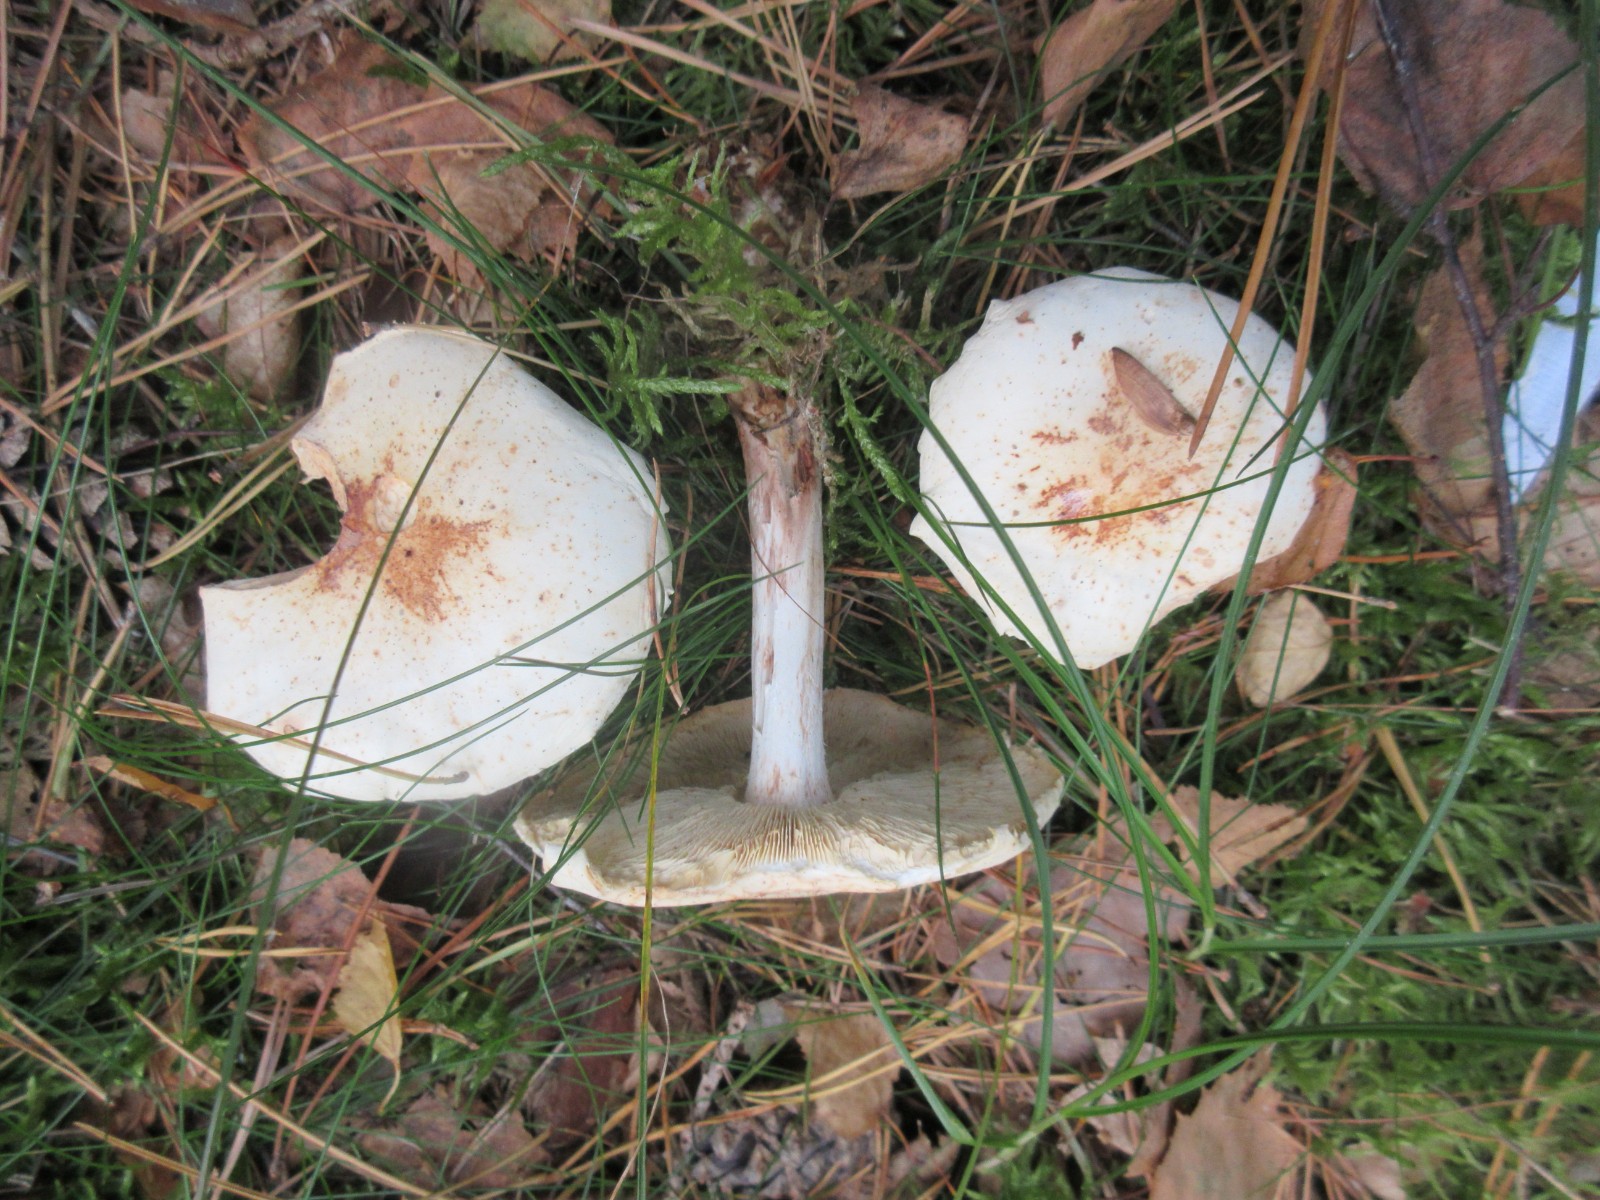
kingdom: Fungi
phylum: Basidiomycota
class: Agaricomycetes
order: Agaricales
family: Omphalotaceae
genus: Rhodocollybia
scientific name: Rhodocollybia maculata
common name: plettet fladhat
